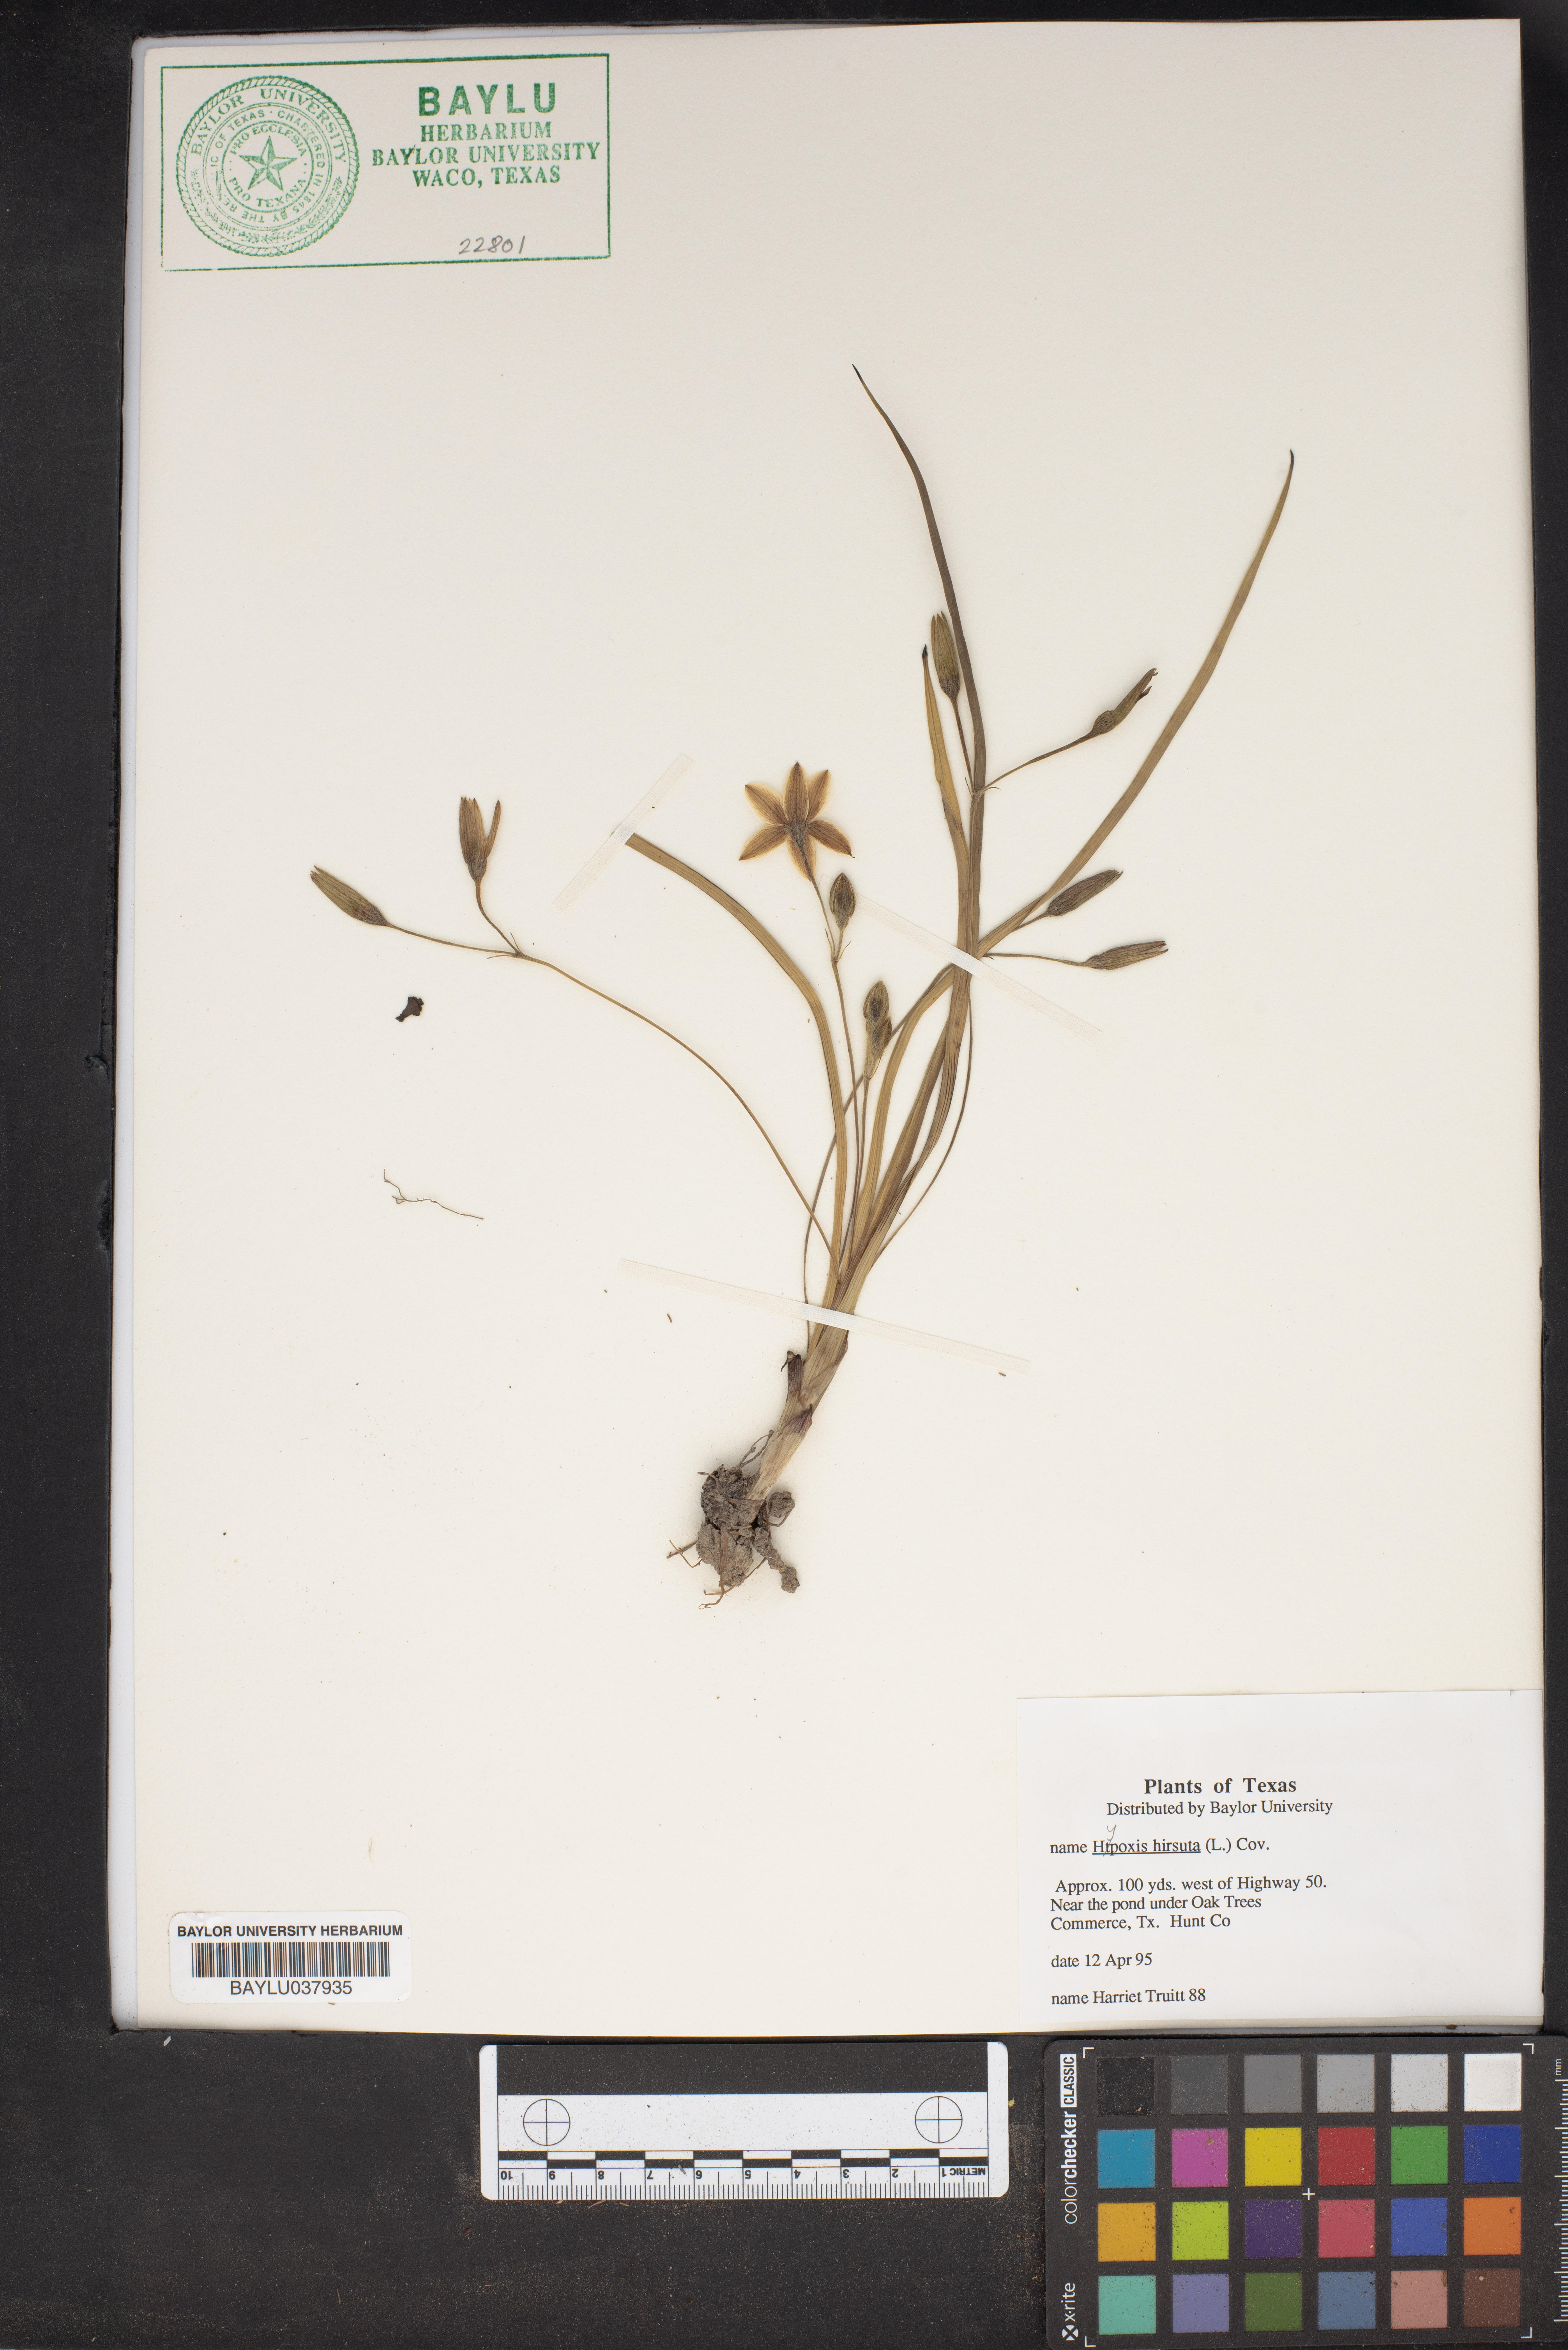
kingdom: Plantae
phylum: Tracheophyta
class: Liliopsida
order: Asparagales
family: Hypoxidaceae
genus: Hypoxis
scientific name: Hypoxis hirsuta
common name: Common goldstar
